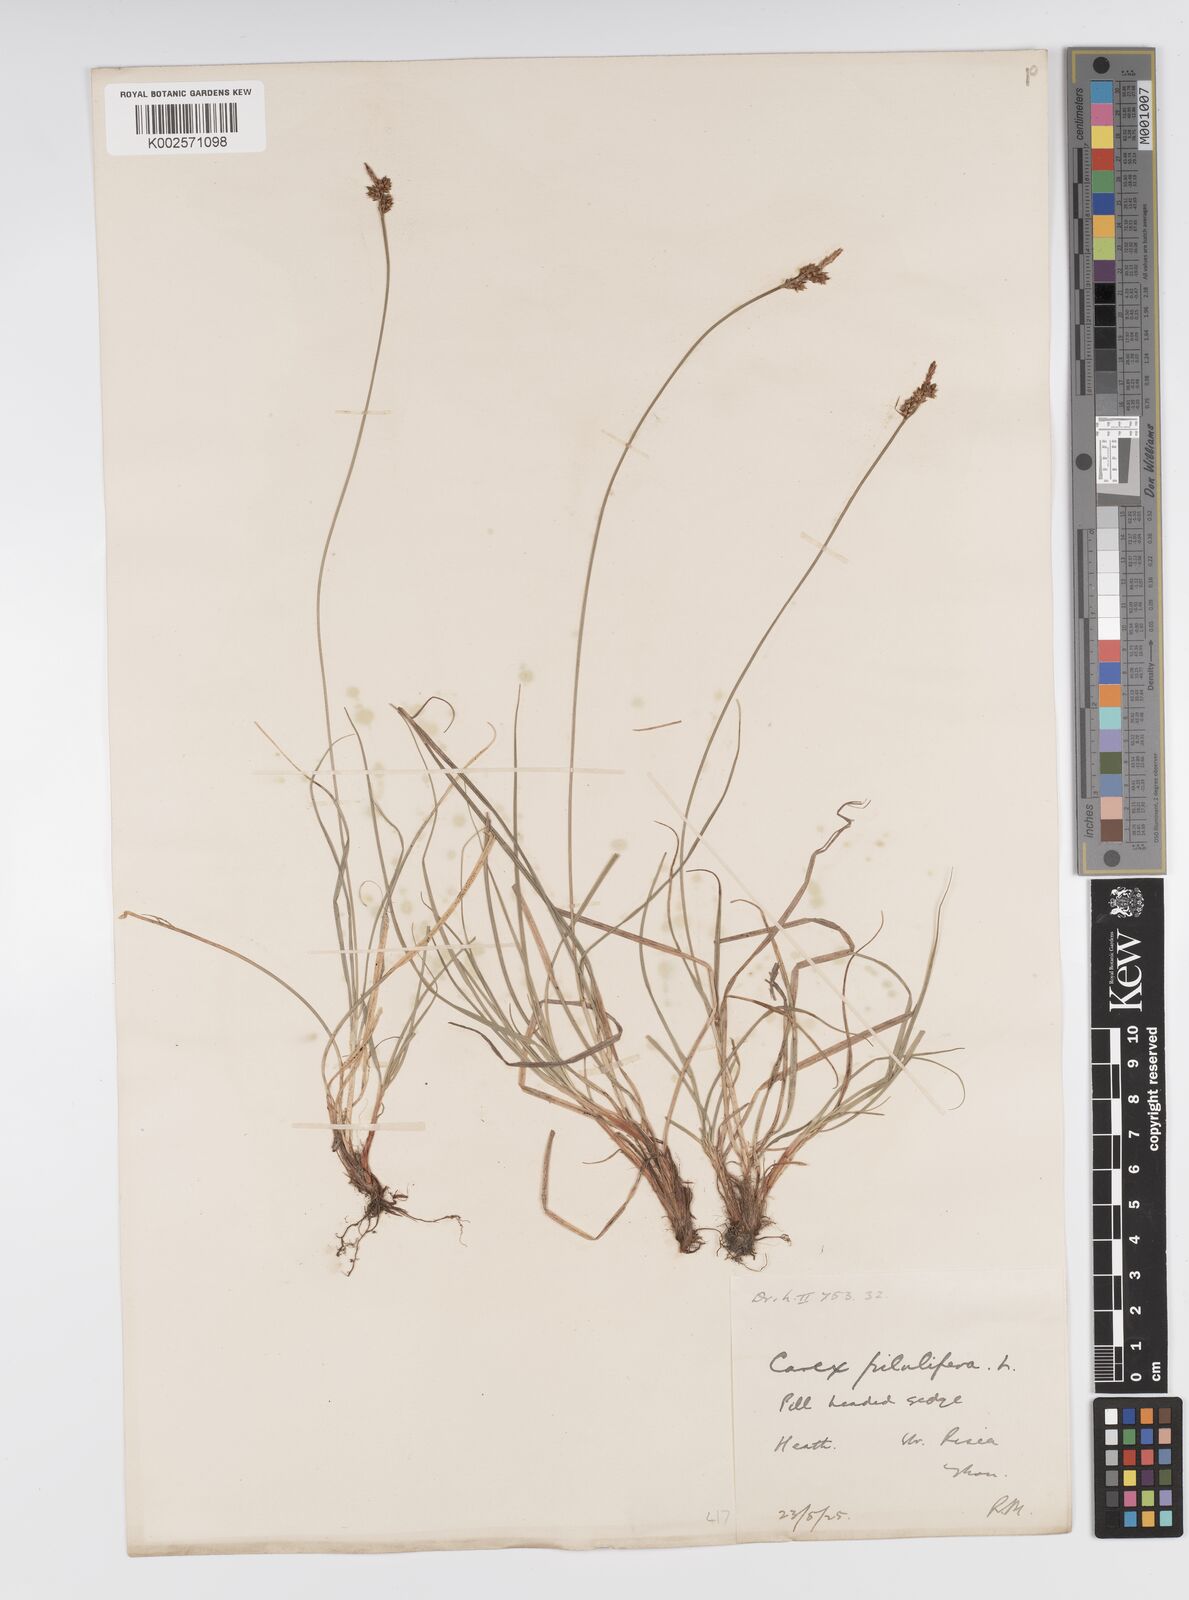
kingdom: Plantae
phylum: Tracheophyta
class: Liliopsida
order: Poales
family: Cyperaceae
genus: Carex
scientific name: Carex pilulifera
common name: Pill sedge
